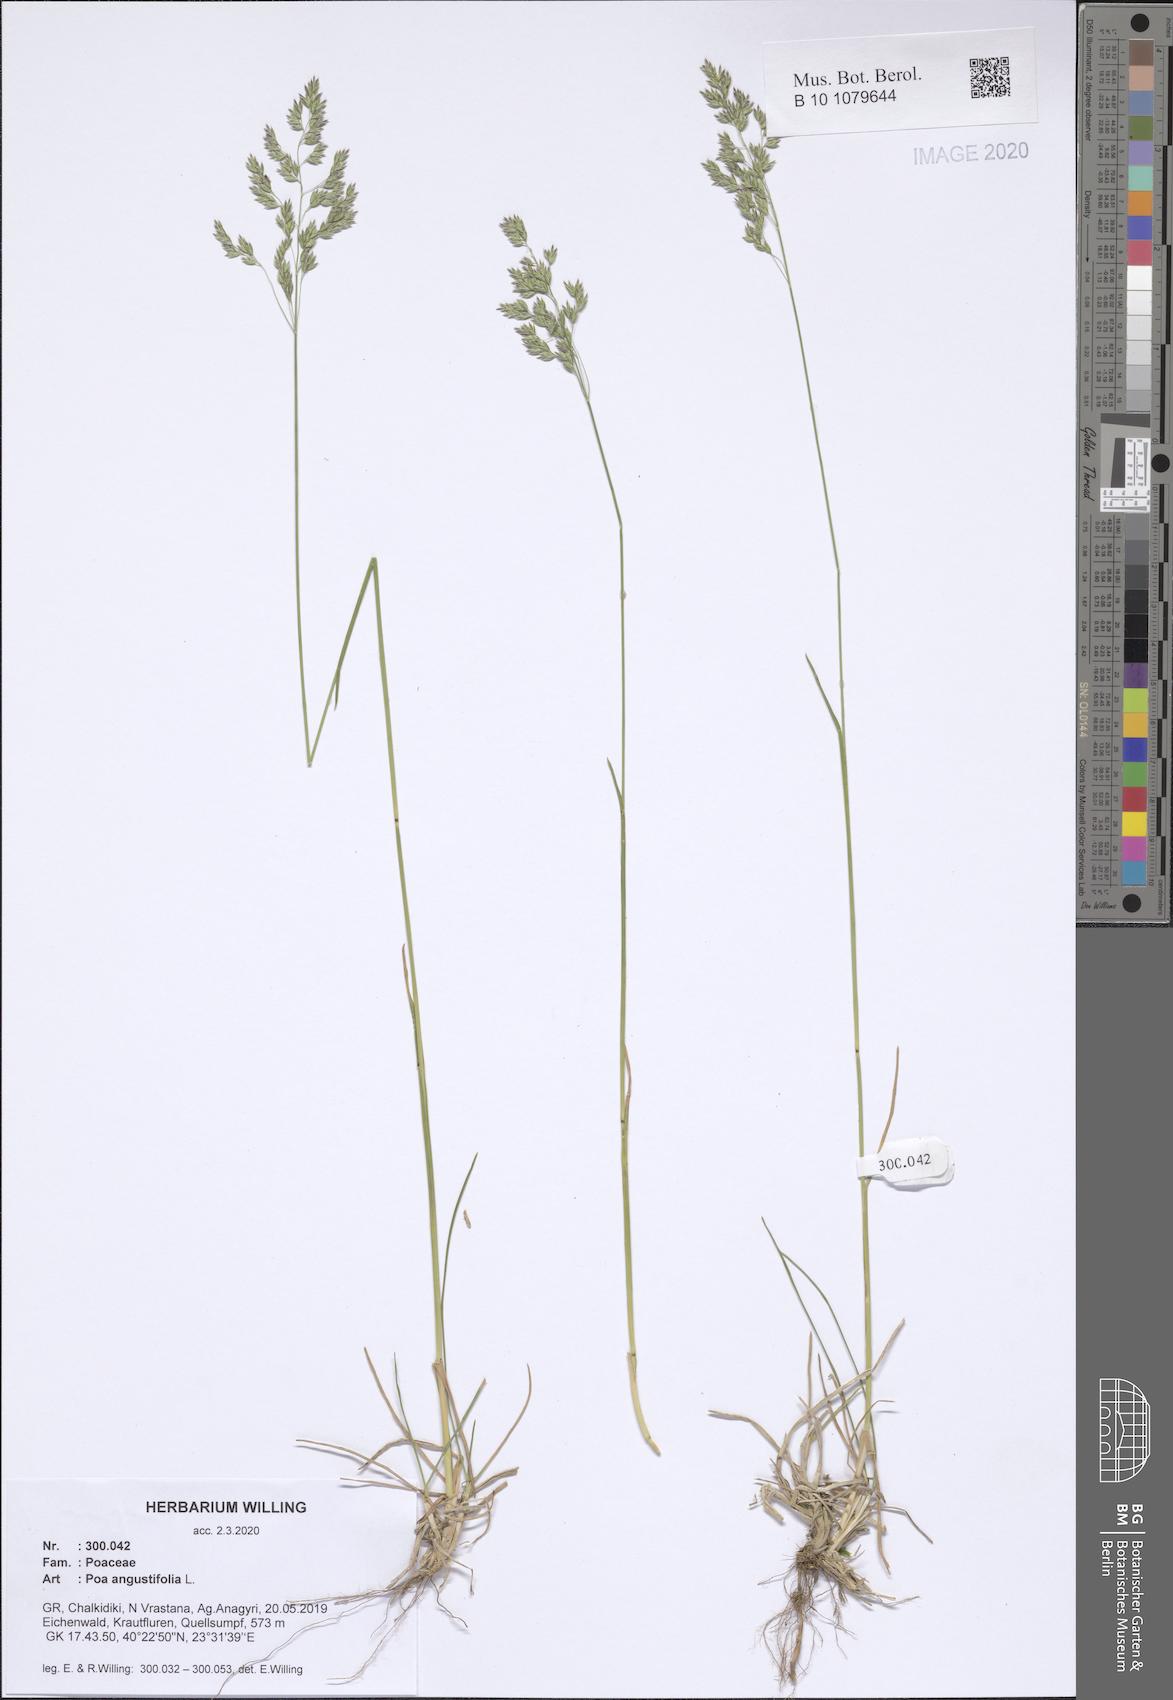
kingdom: Plantae
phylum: Tracheophyta
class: Liliopsida
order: Poales
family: Poaceae
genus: Poa
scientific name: Poa angustifolia
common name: Narrow-leaved meadow-grass
